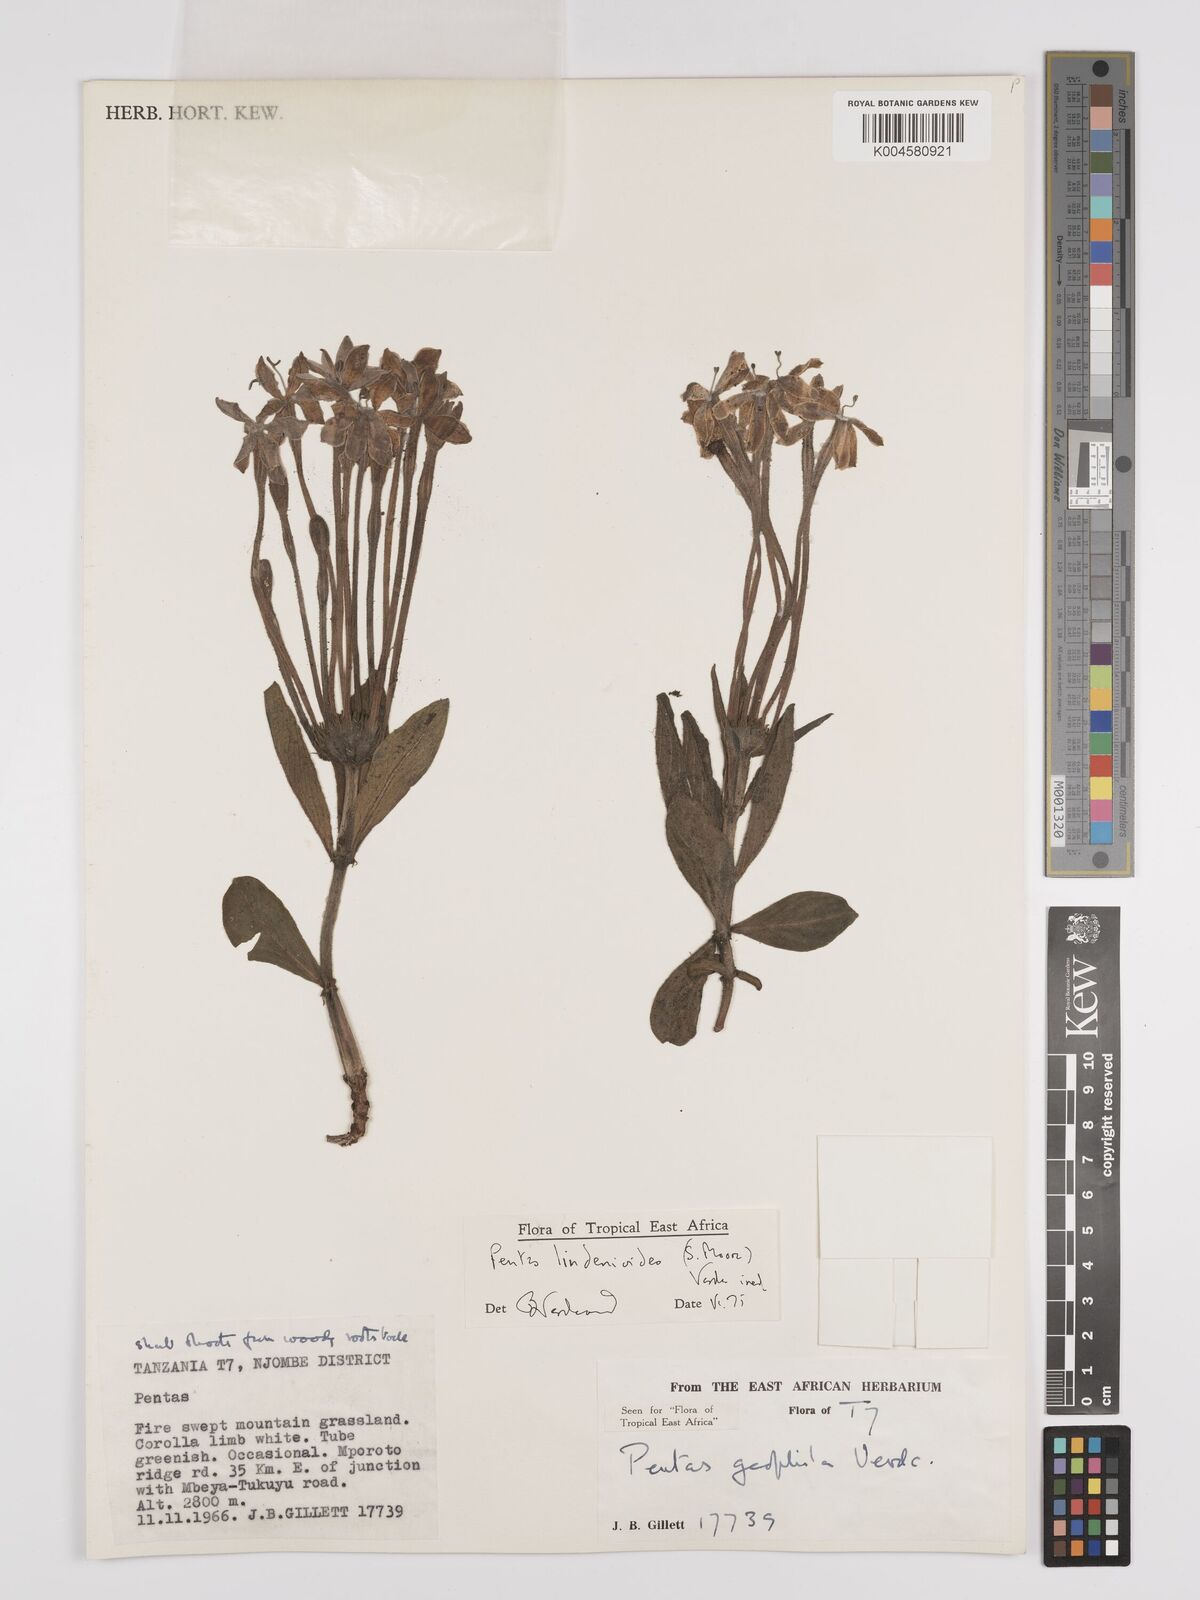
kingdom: Plantae
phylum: Tracheophyta
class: Magnoliopsida
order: Gentianales
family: Rubiaceae
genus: Dolichopentas
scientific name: Dolichopentas lindenioides
